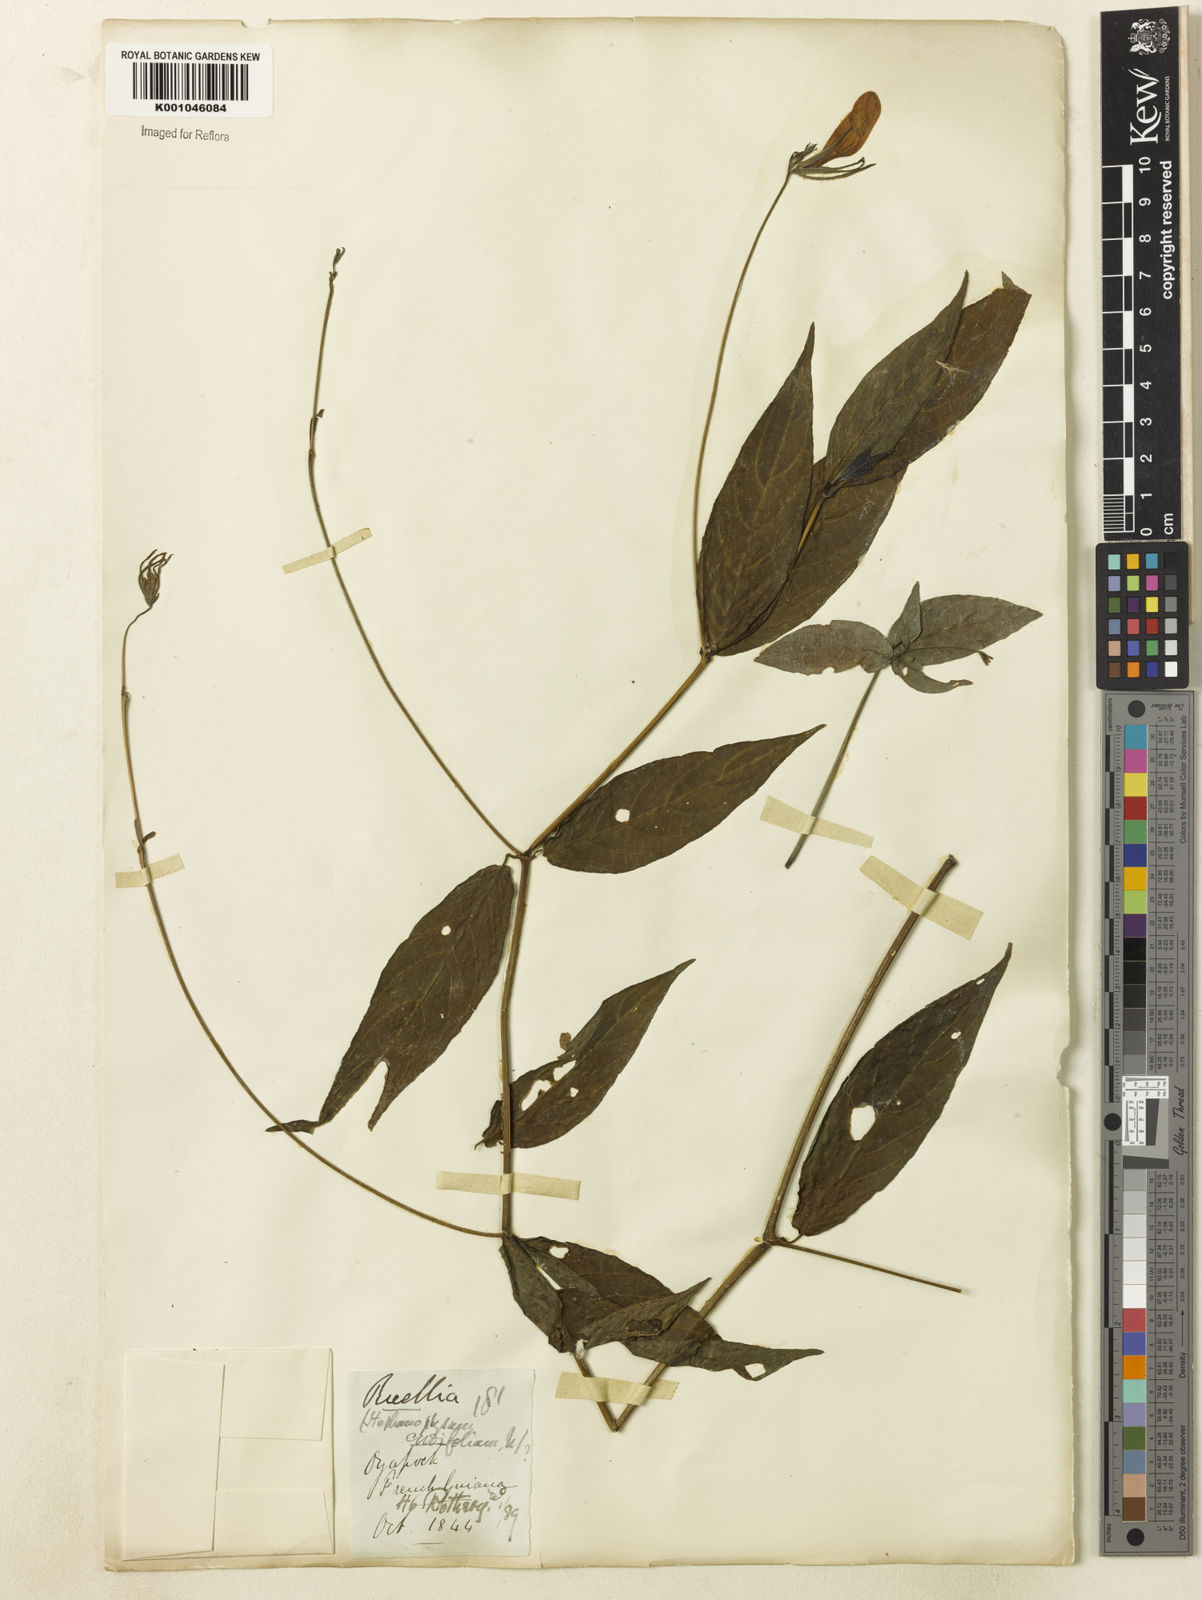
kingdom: Plantae
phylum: Tracheophyta
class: Magnoliopsida
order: Lamiales
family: Acanthaceae
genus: Ruellia
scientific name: Ruellia inflata
